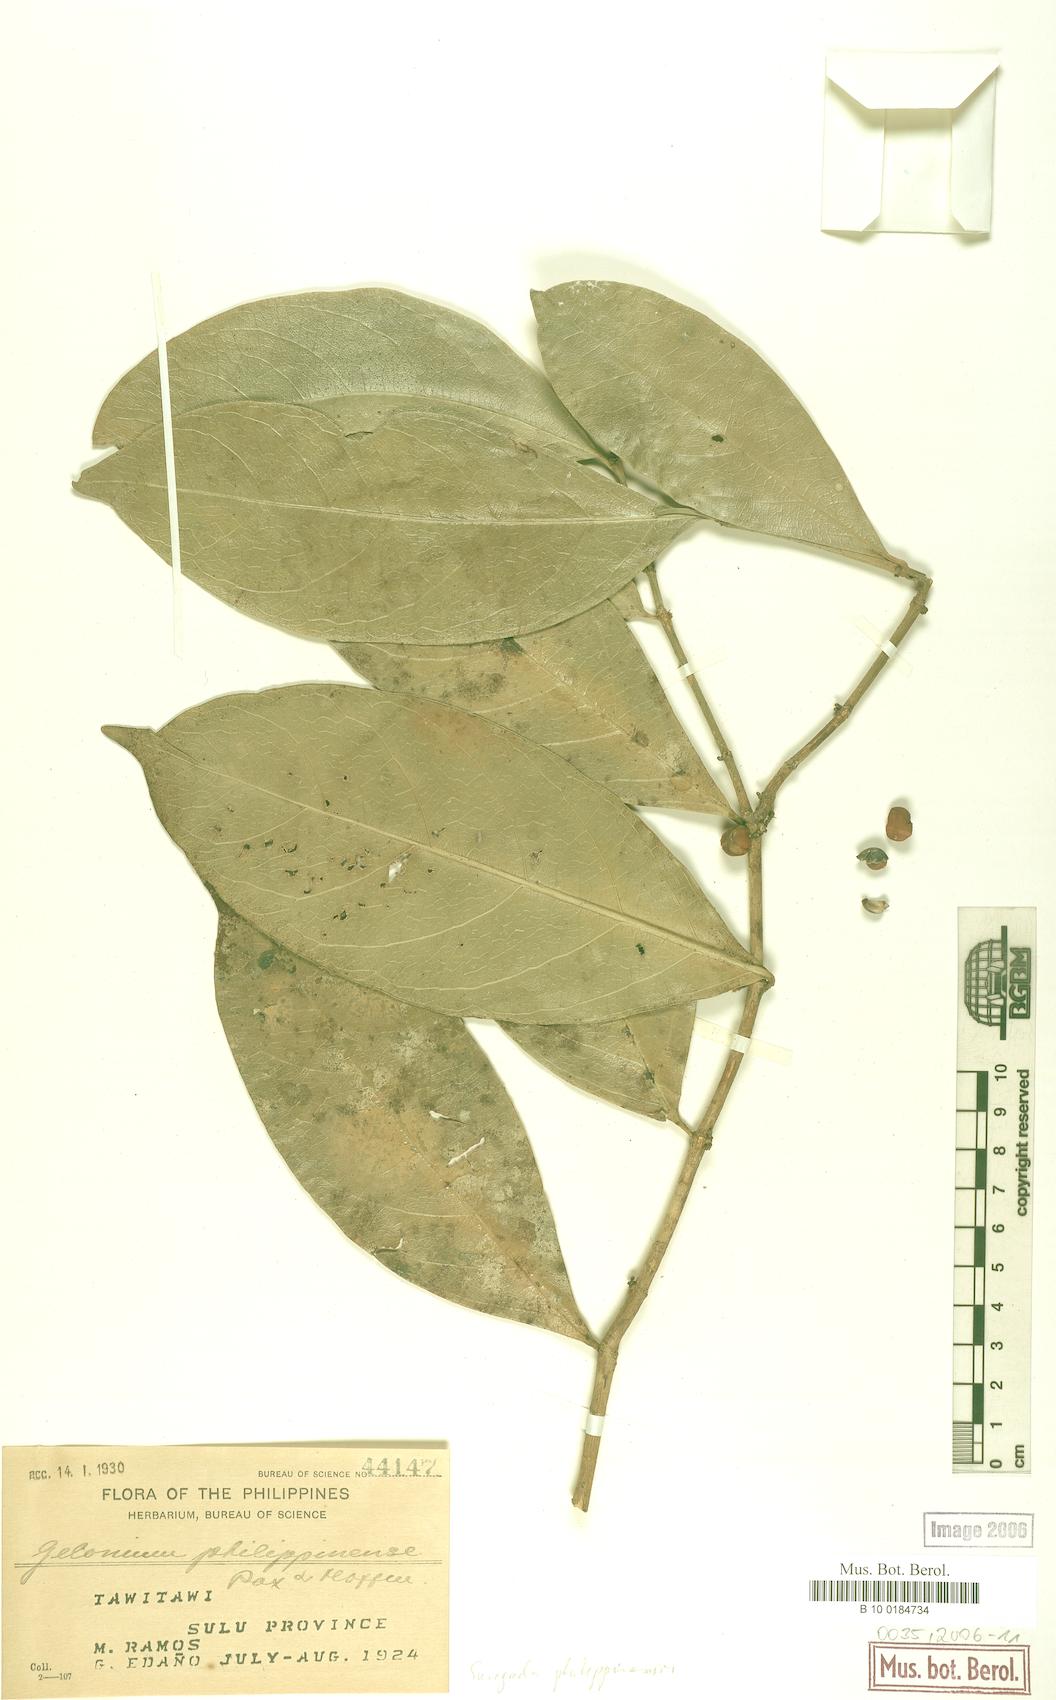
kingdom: Plantae
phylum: Tracheophyta
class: Magnoliopsida
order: Malpighiales
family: Euphorbiaceae
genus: Suregada
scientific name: Suregada glomerulata
